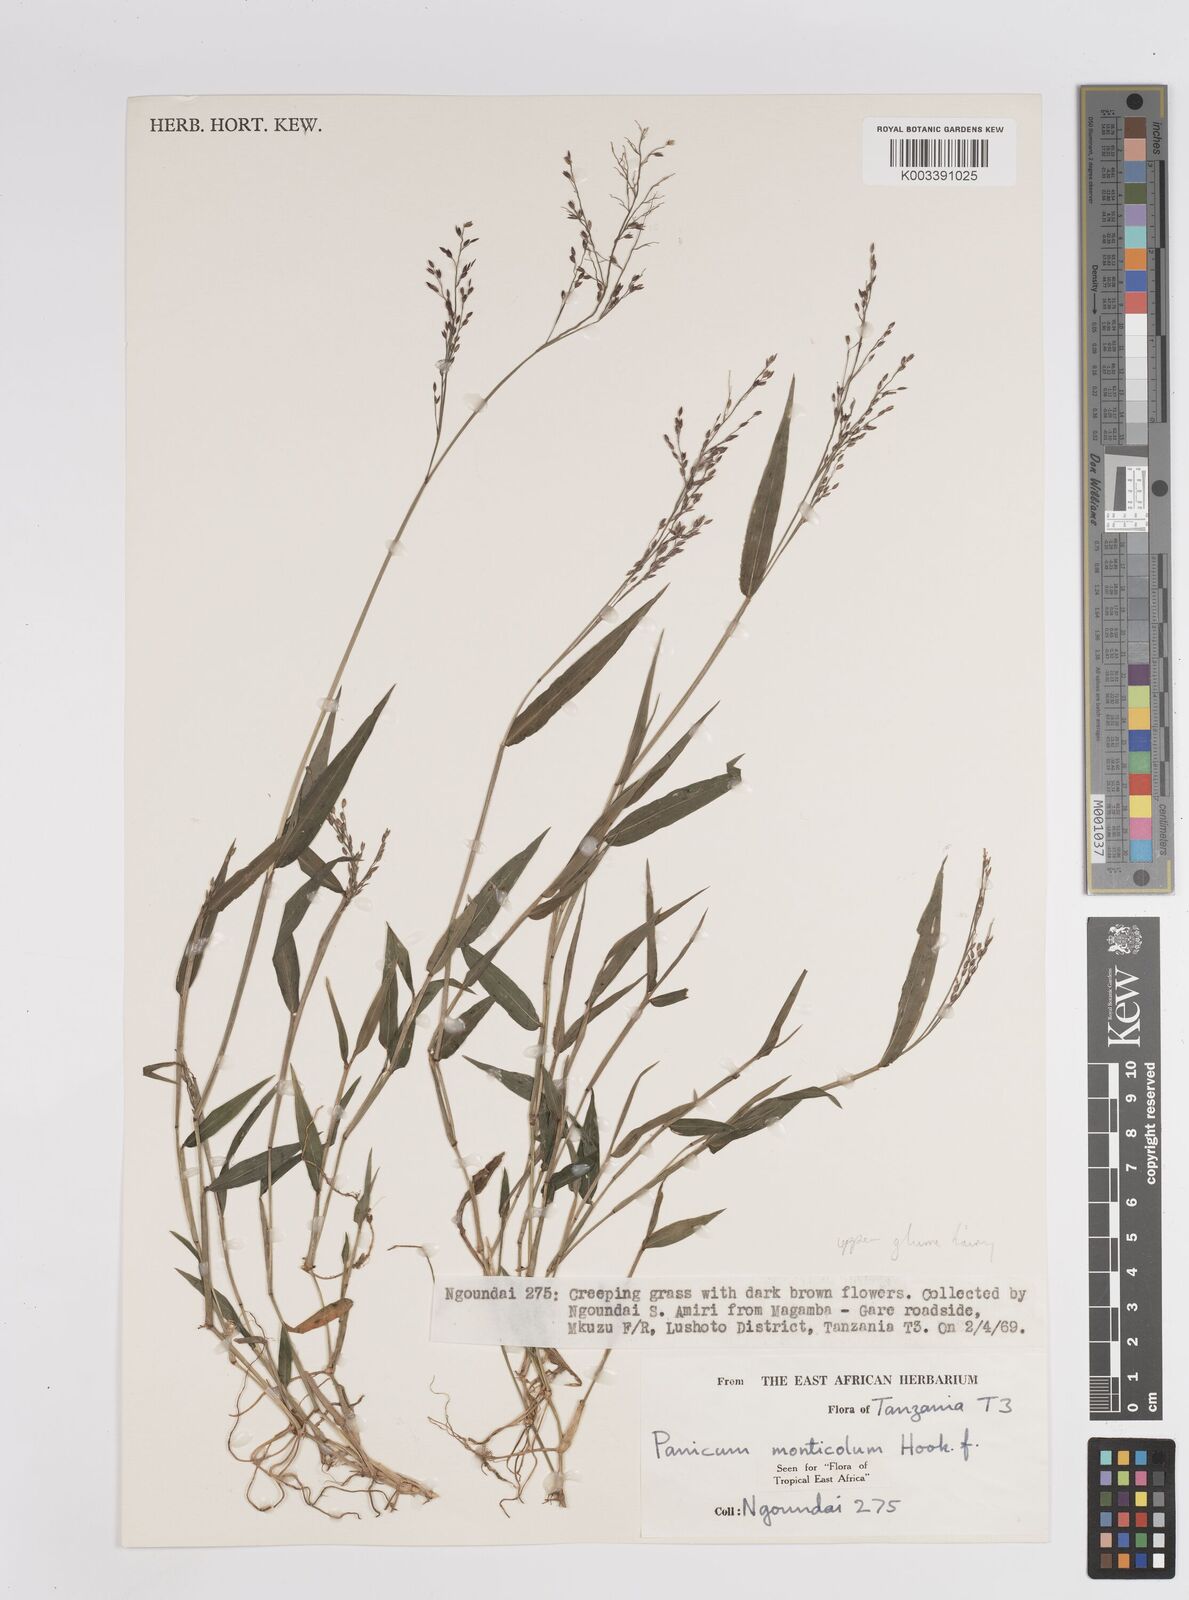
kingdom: Plantae
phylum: Tracheophyta
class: Liliopsida
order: Poales
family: Poaceae
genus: Panicum
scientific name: Panicum monticola
